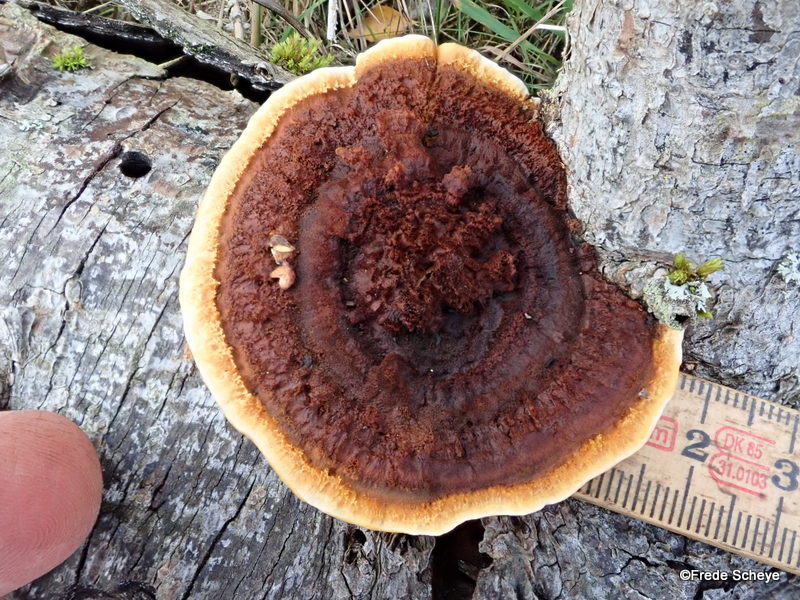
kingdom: Fungi
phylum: Basidiomycota
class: Agaricomycetes
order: Gloeophyllales
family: Gloeophyllaceae
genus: Gloeophyllum
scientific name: Gloeophyllum sepiarium
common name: fyrre-korkhat
